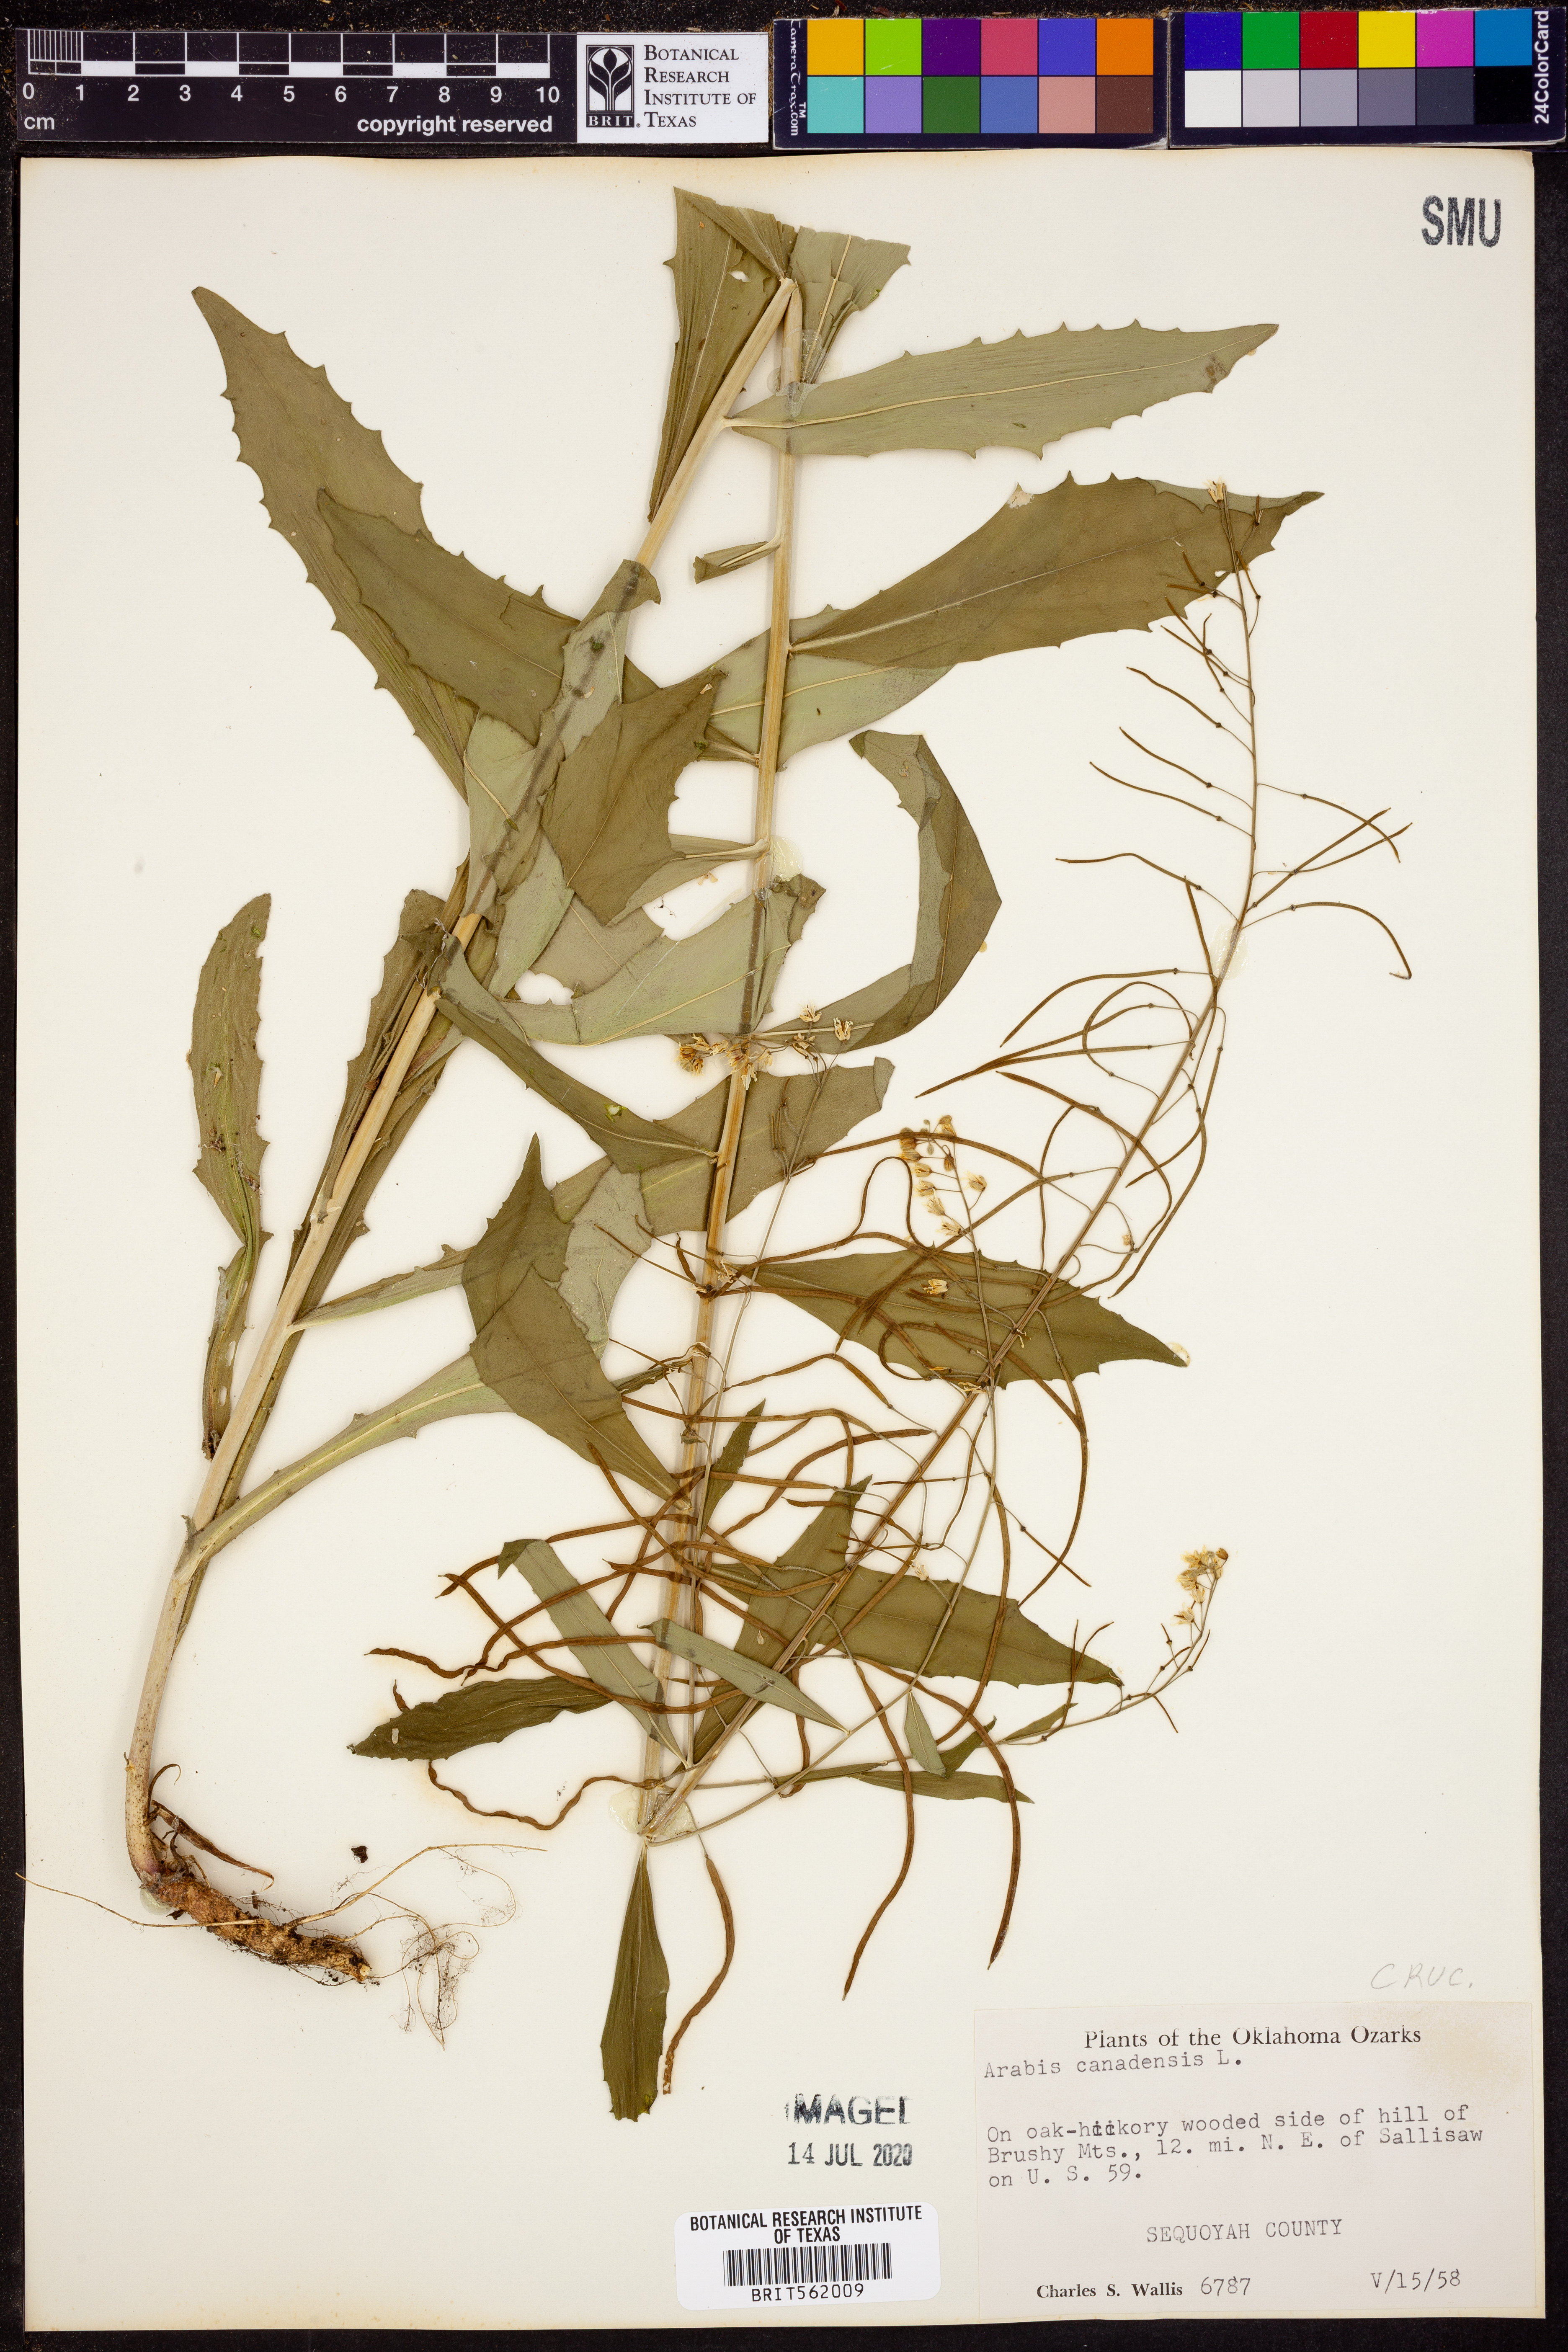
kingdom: Plantae
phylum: Tracheophyta
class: Magnoliopsida
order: Brassicales
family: Brassicaceae
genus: Borodinia
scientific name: Borodinia canadensis
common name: Sicklepod
